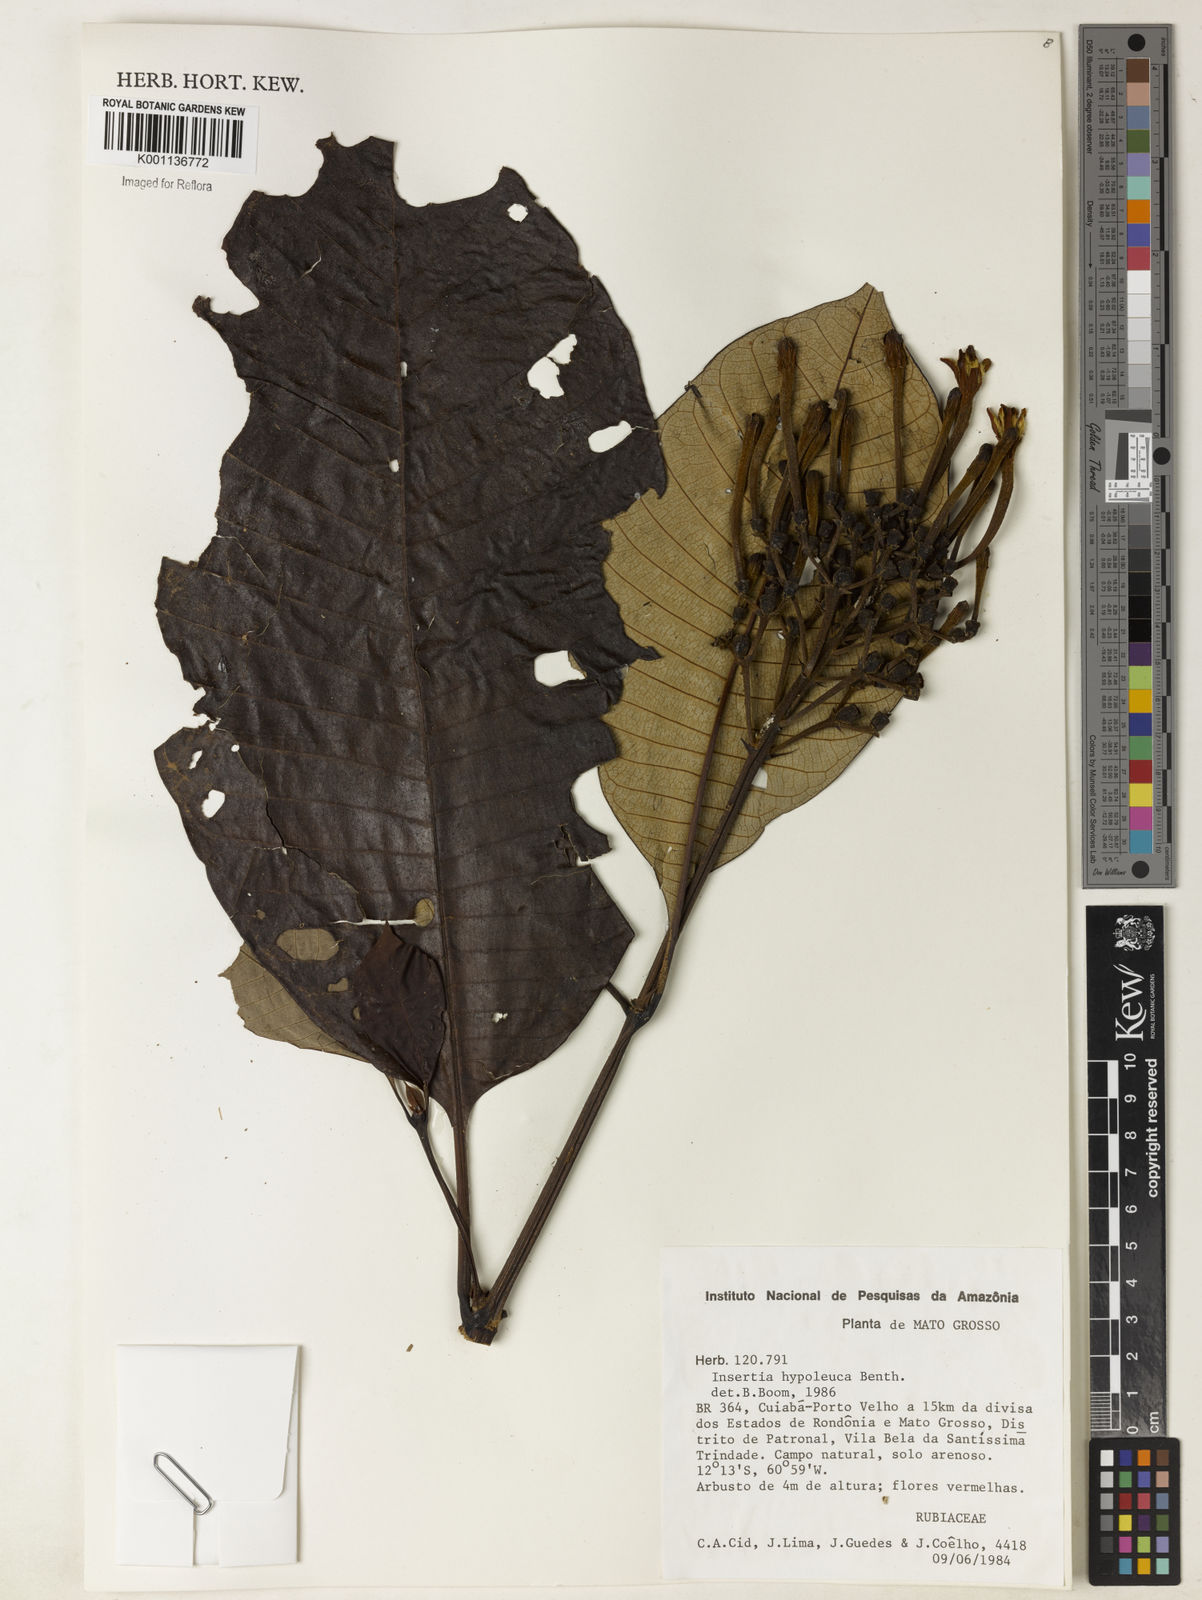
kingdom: Plantae
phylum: Tracheophyta
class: Magnoliopsida
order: Gentianales
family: Rubiaceae
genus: Isertia
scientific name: Isertia hypoleuca
